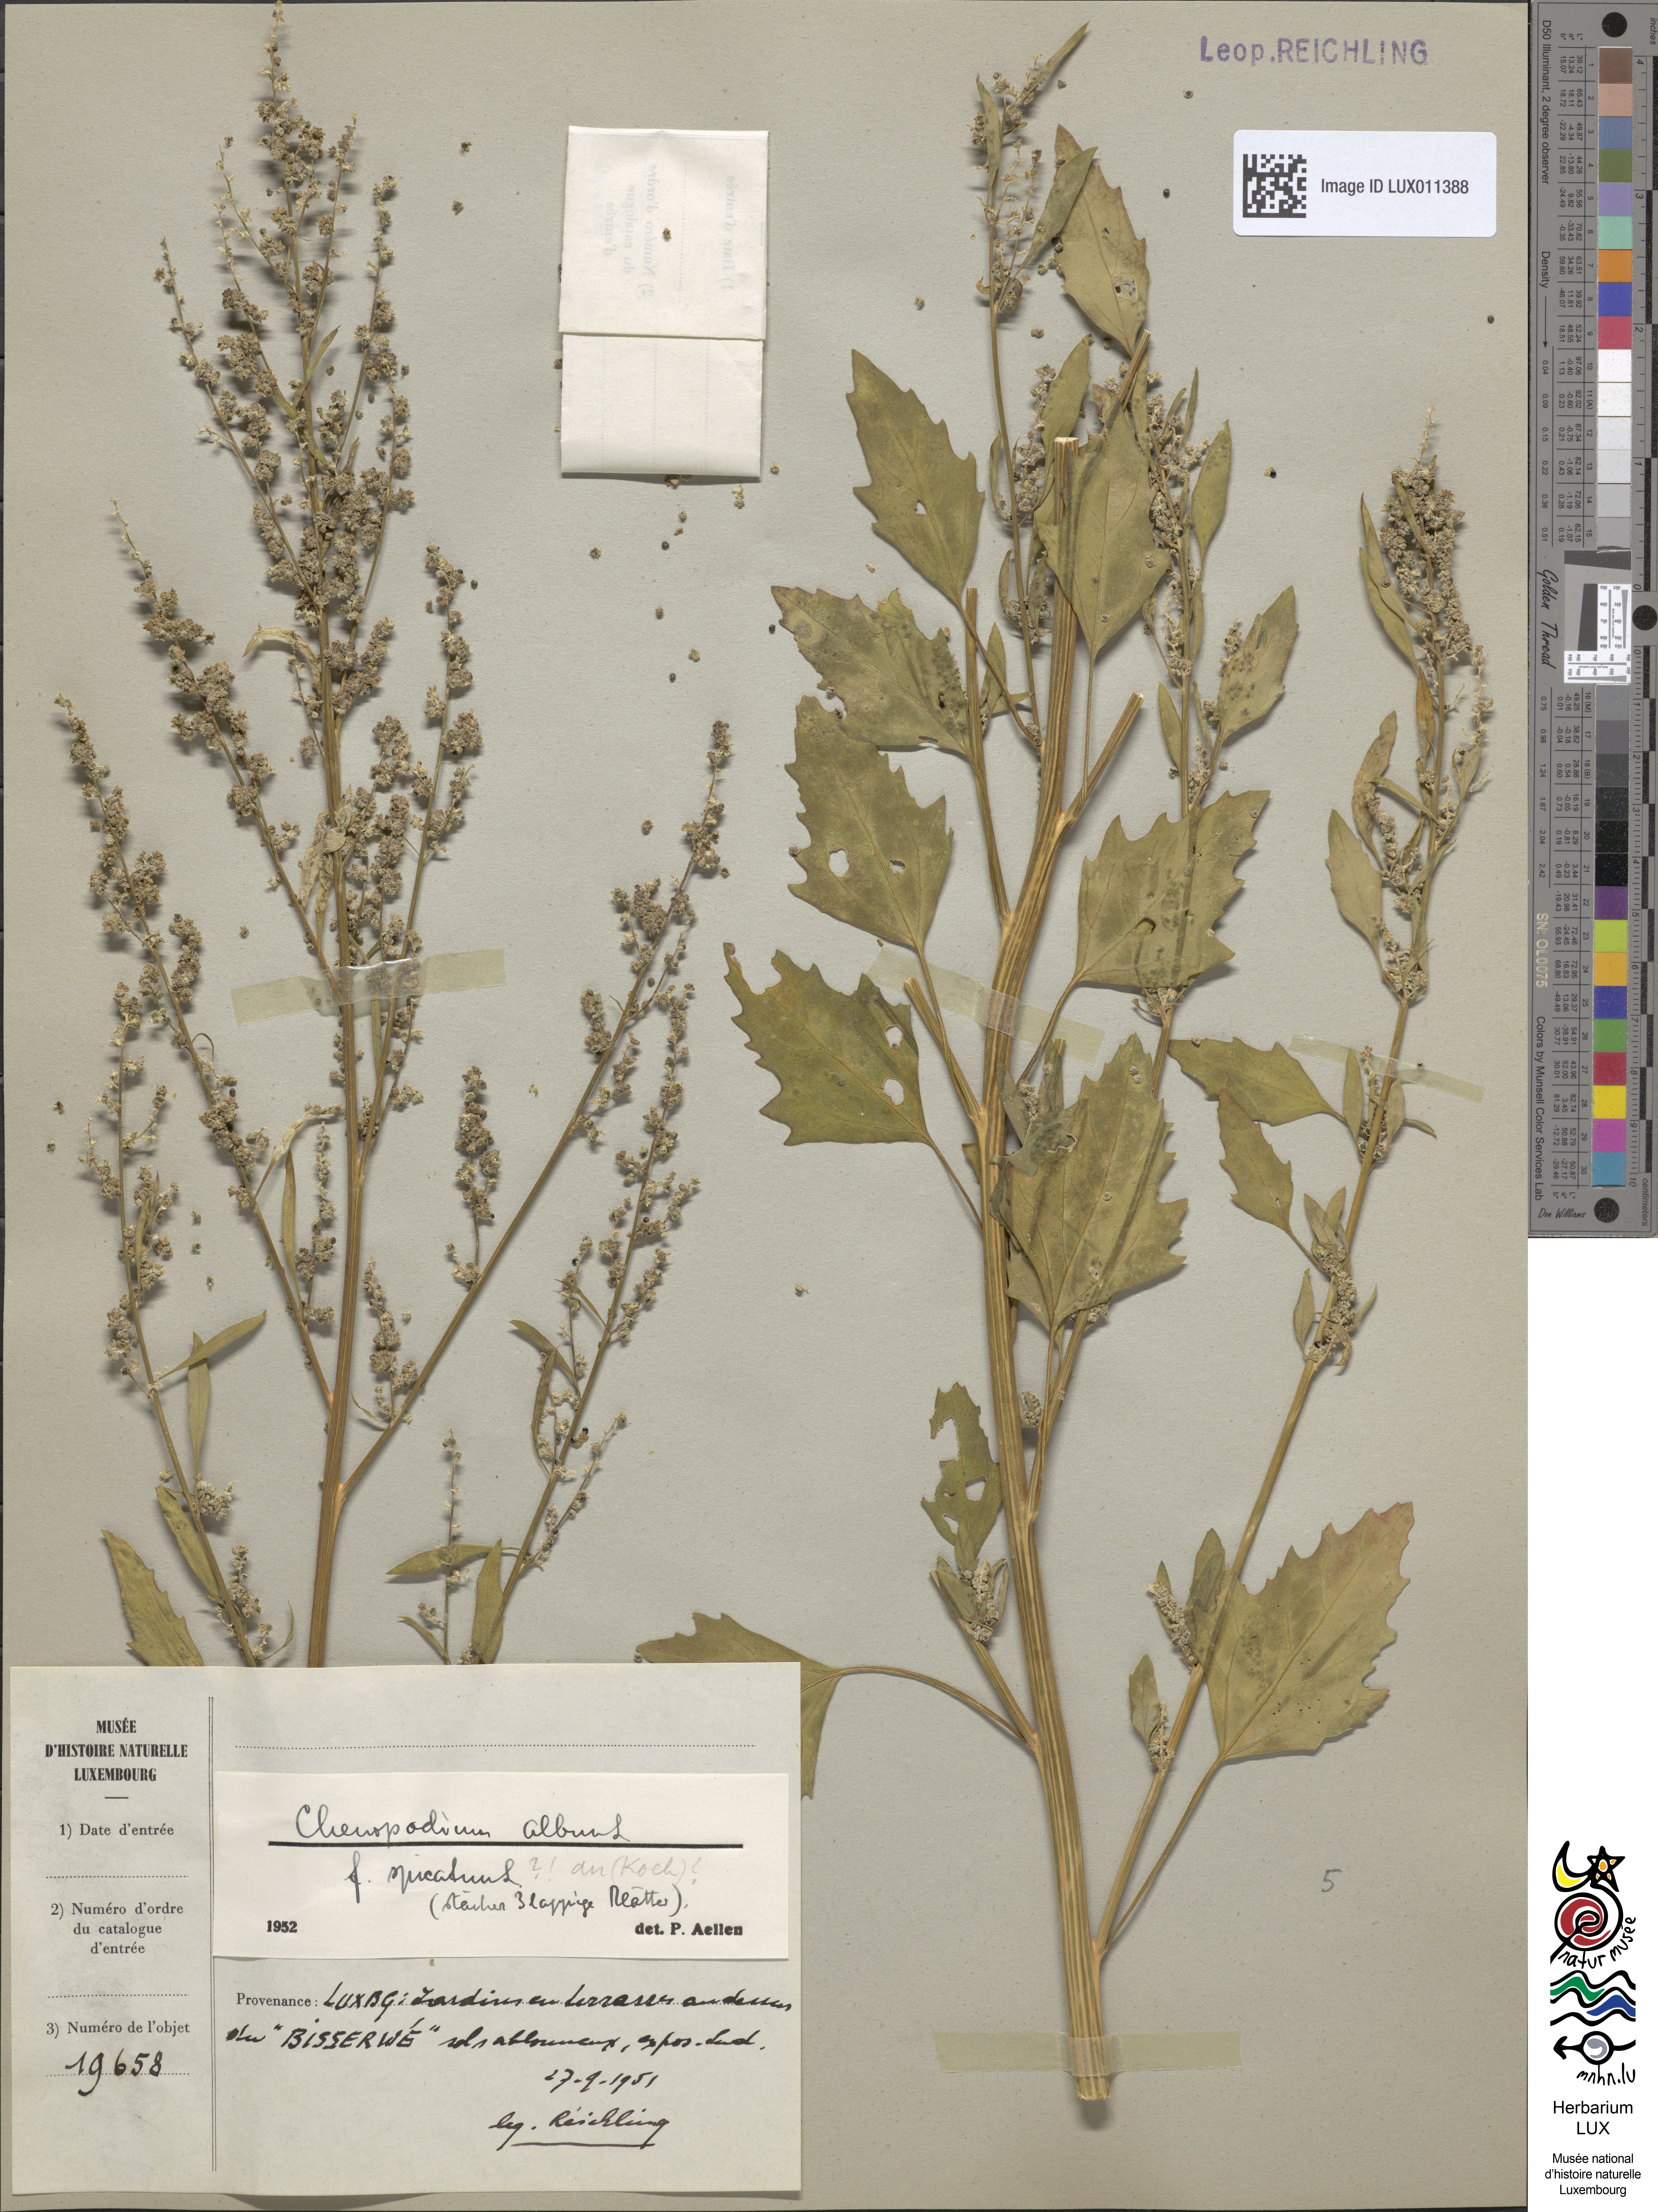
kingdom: Plantae
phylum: Tracheophyta
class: Magnoliopsida
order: Caryophyllales
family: Amaranthaceae
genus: Chenopodium
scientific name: Chenopodium album
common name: Fat-hen
